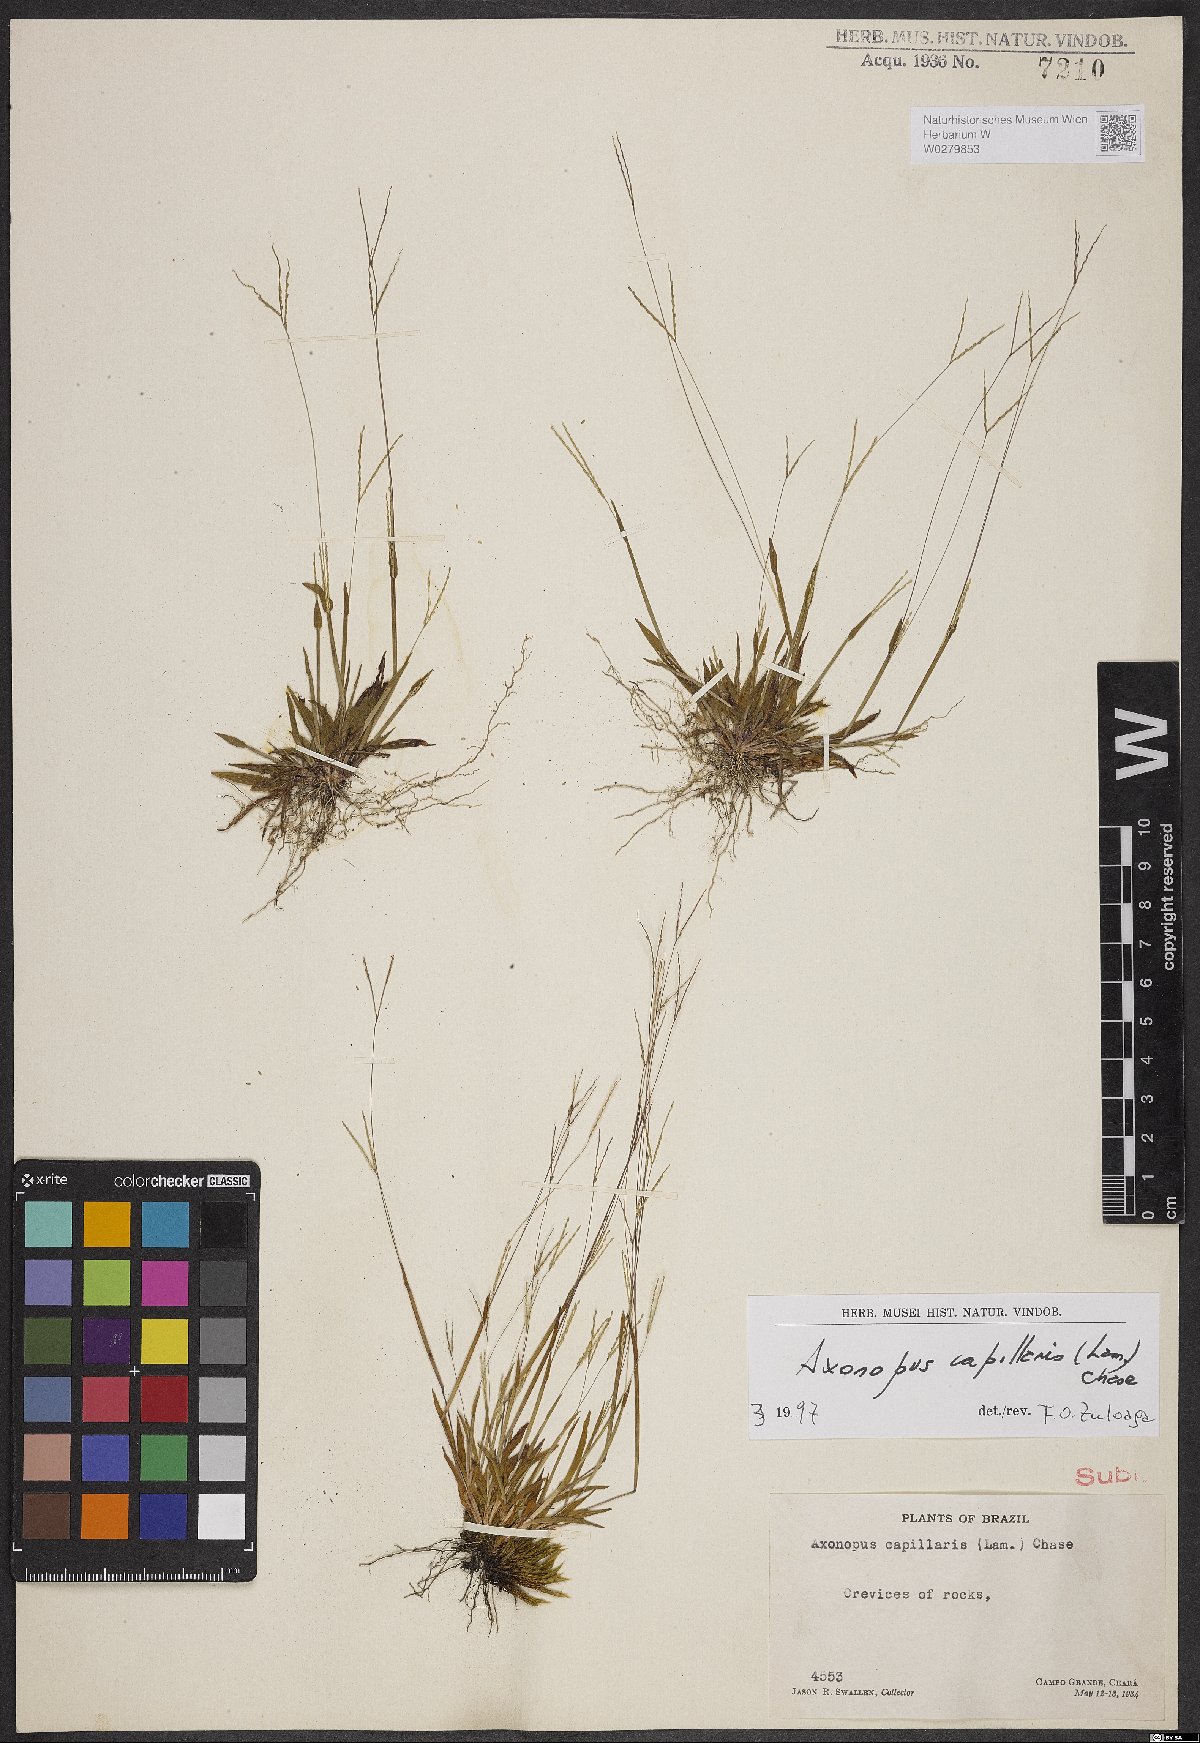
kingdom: Plantae
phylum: Tracheophyta
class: Liliopsida
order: Poales
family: Poaceae
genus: Axonopus
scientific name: Axonopus capillaris
